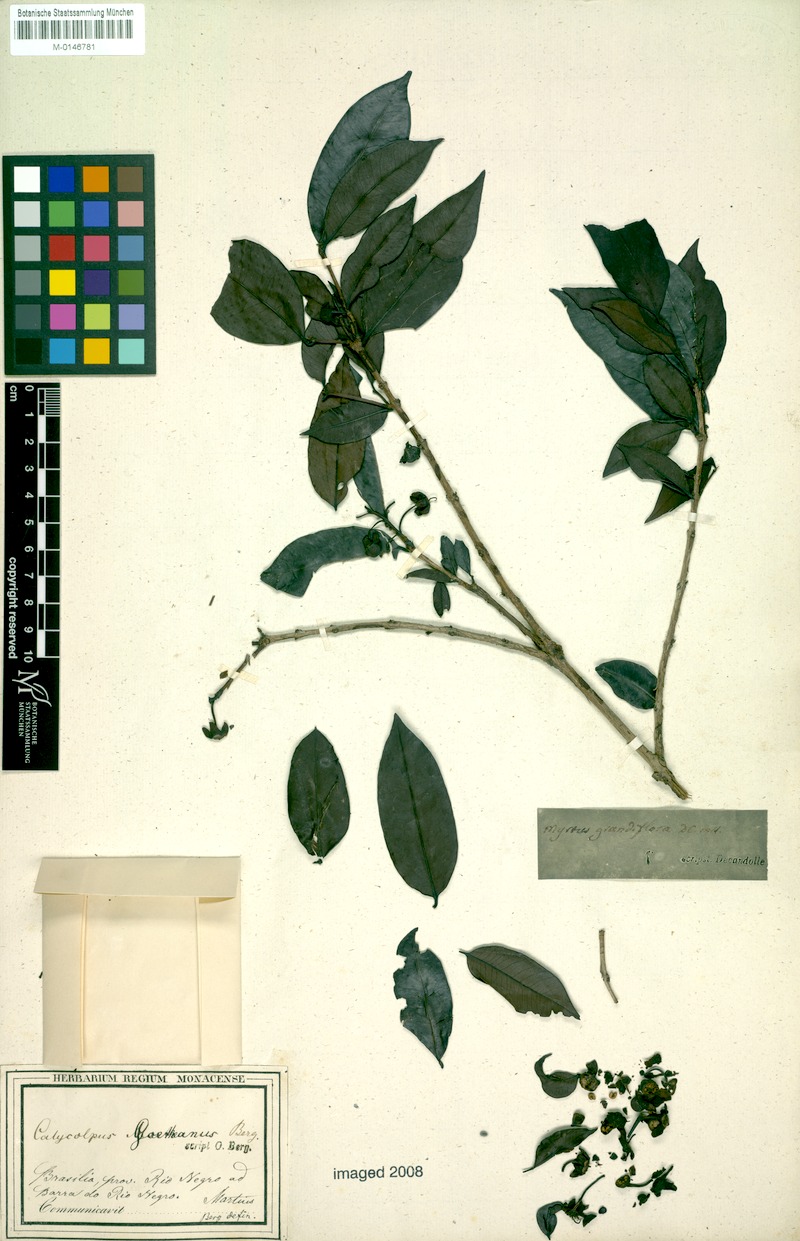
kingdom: Plantae
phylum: Tracheophyta
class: Magnoliopsida
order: Myrtales
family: Myrtaceae
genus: Calycolpus
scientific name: Calycolpus goetheanus
